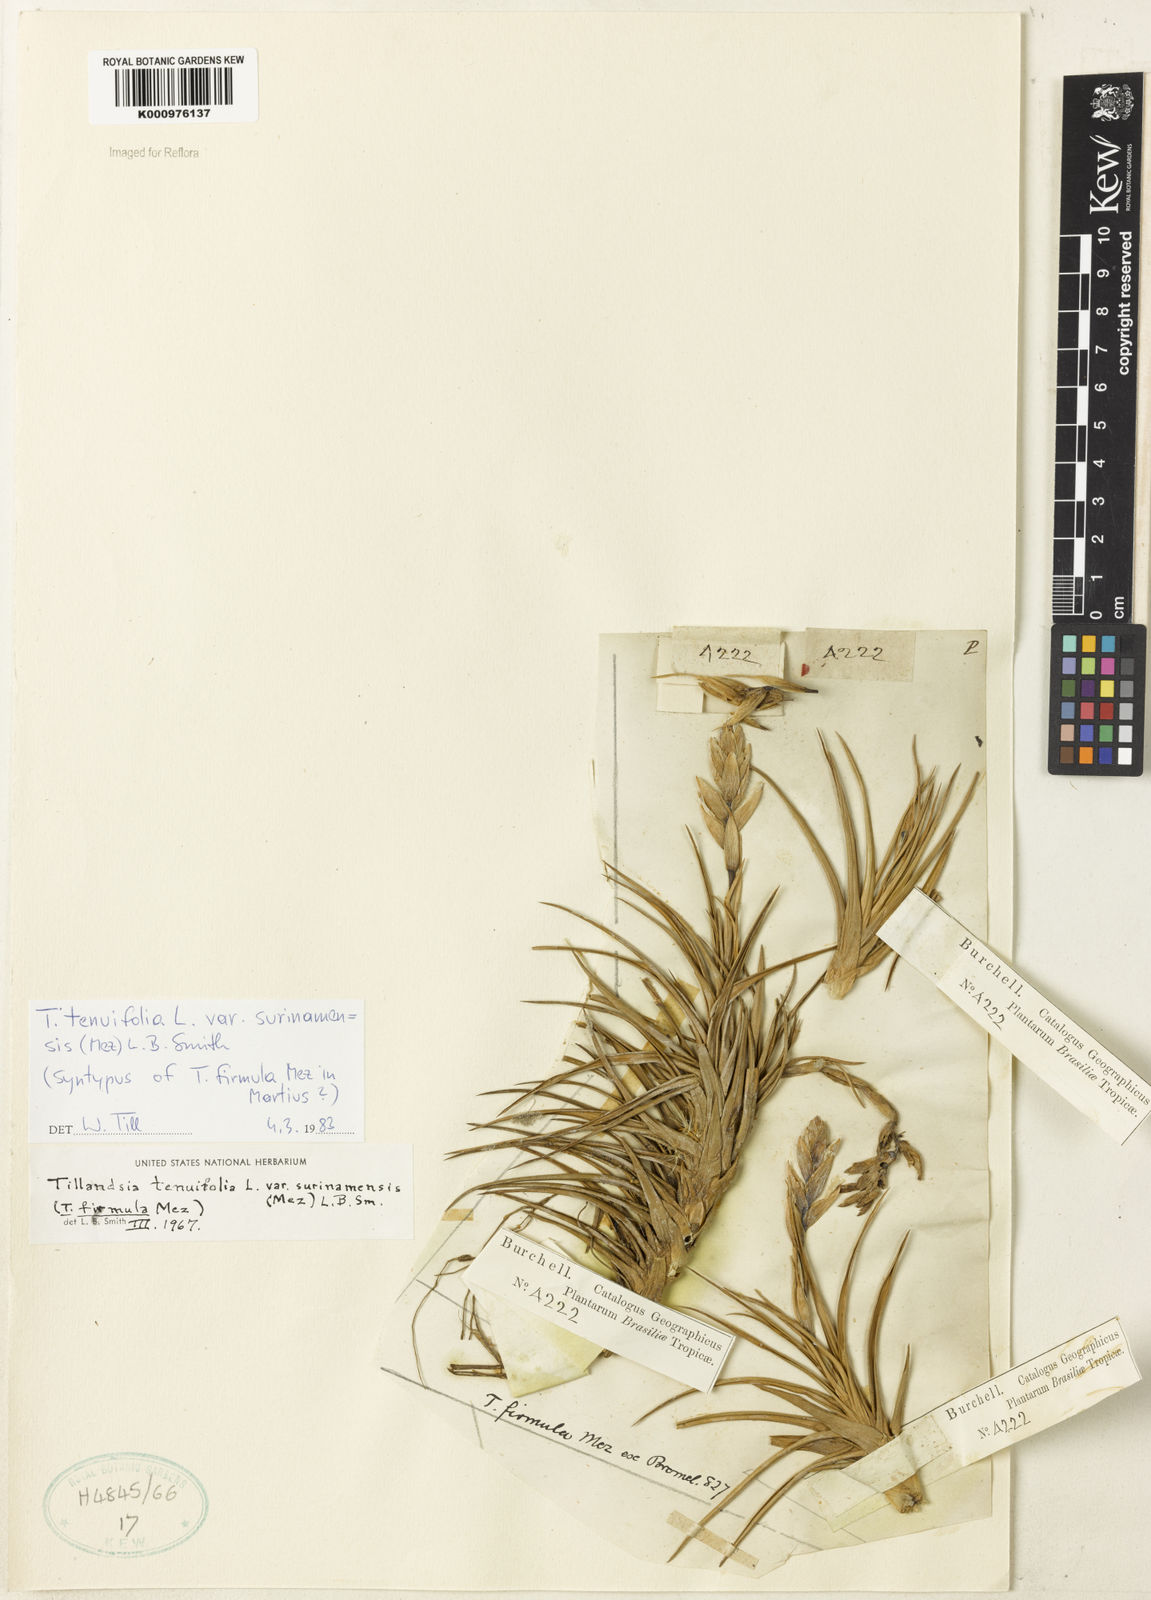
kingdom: Plantae
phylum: Tracheophyta
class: Liliopsida
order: Poales
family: Bromeliaceae
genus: Tillandsia
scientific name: Tillandsia tenuifolia
